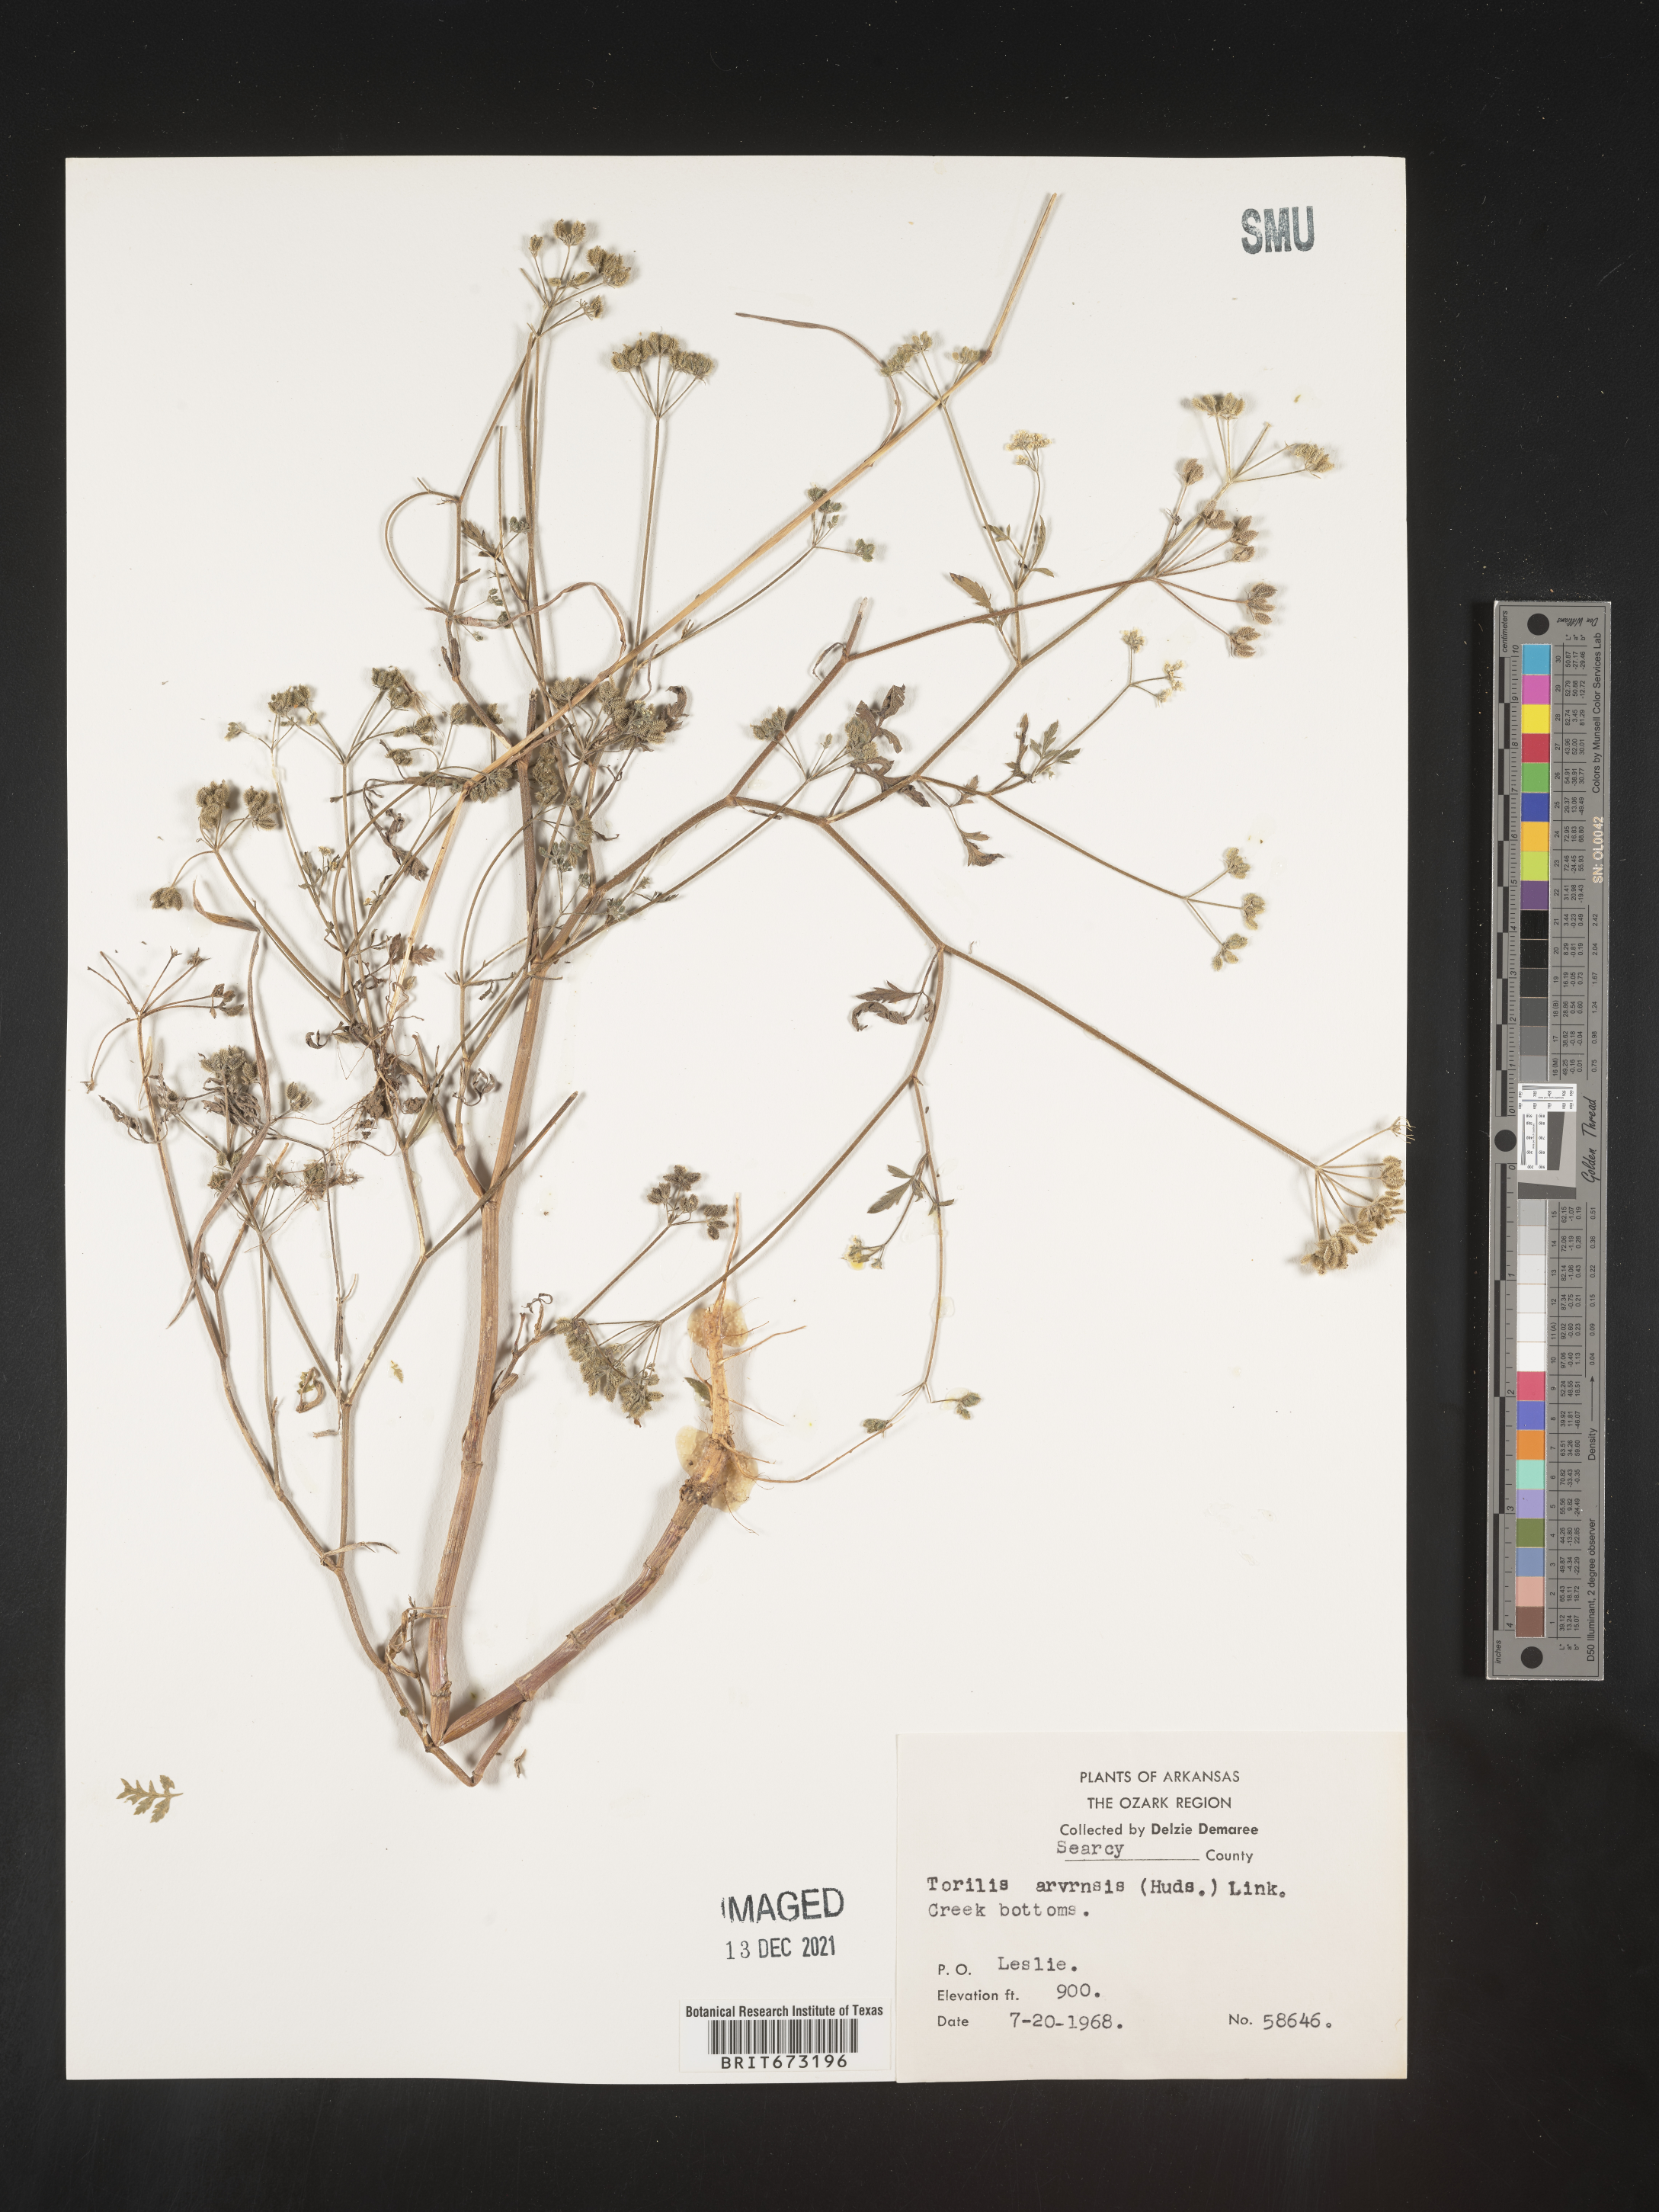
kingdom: Plantae
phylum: Tracheophyta
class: Magnoliopsida
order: Apiales
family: Apiaceae
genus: Torilis
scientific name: Torilis arvensis
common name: Spreading hedge-parsley
